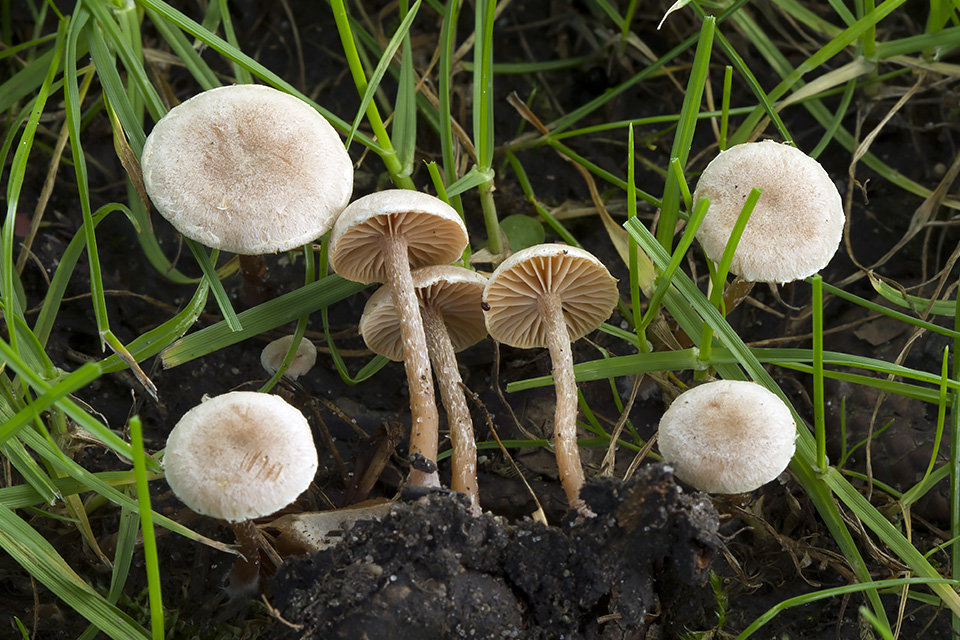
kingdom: Fungi
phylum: Basidiomycota
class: Agaricomycetes
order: Agaricales
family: Tubariaceae
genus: Tubaria
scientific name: Tubaria conspersa
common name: bleg fnughat
